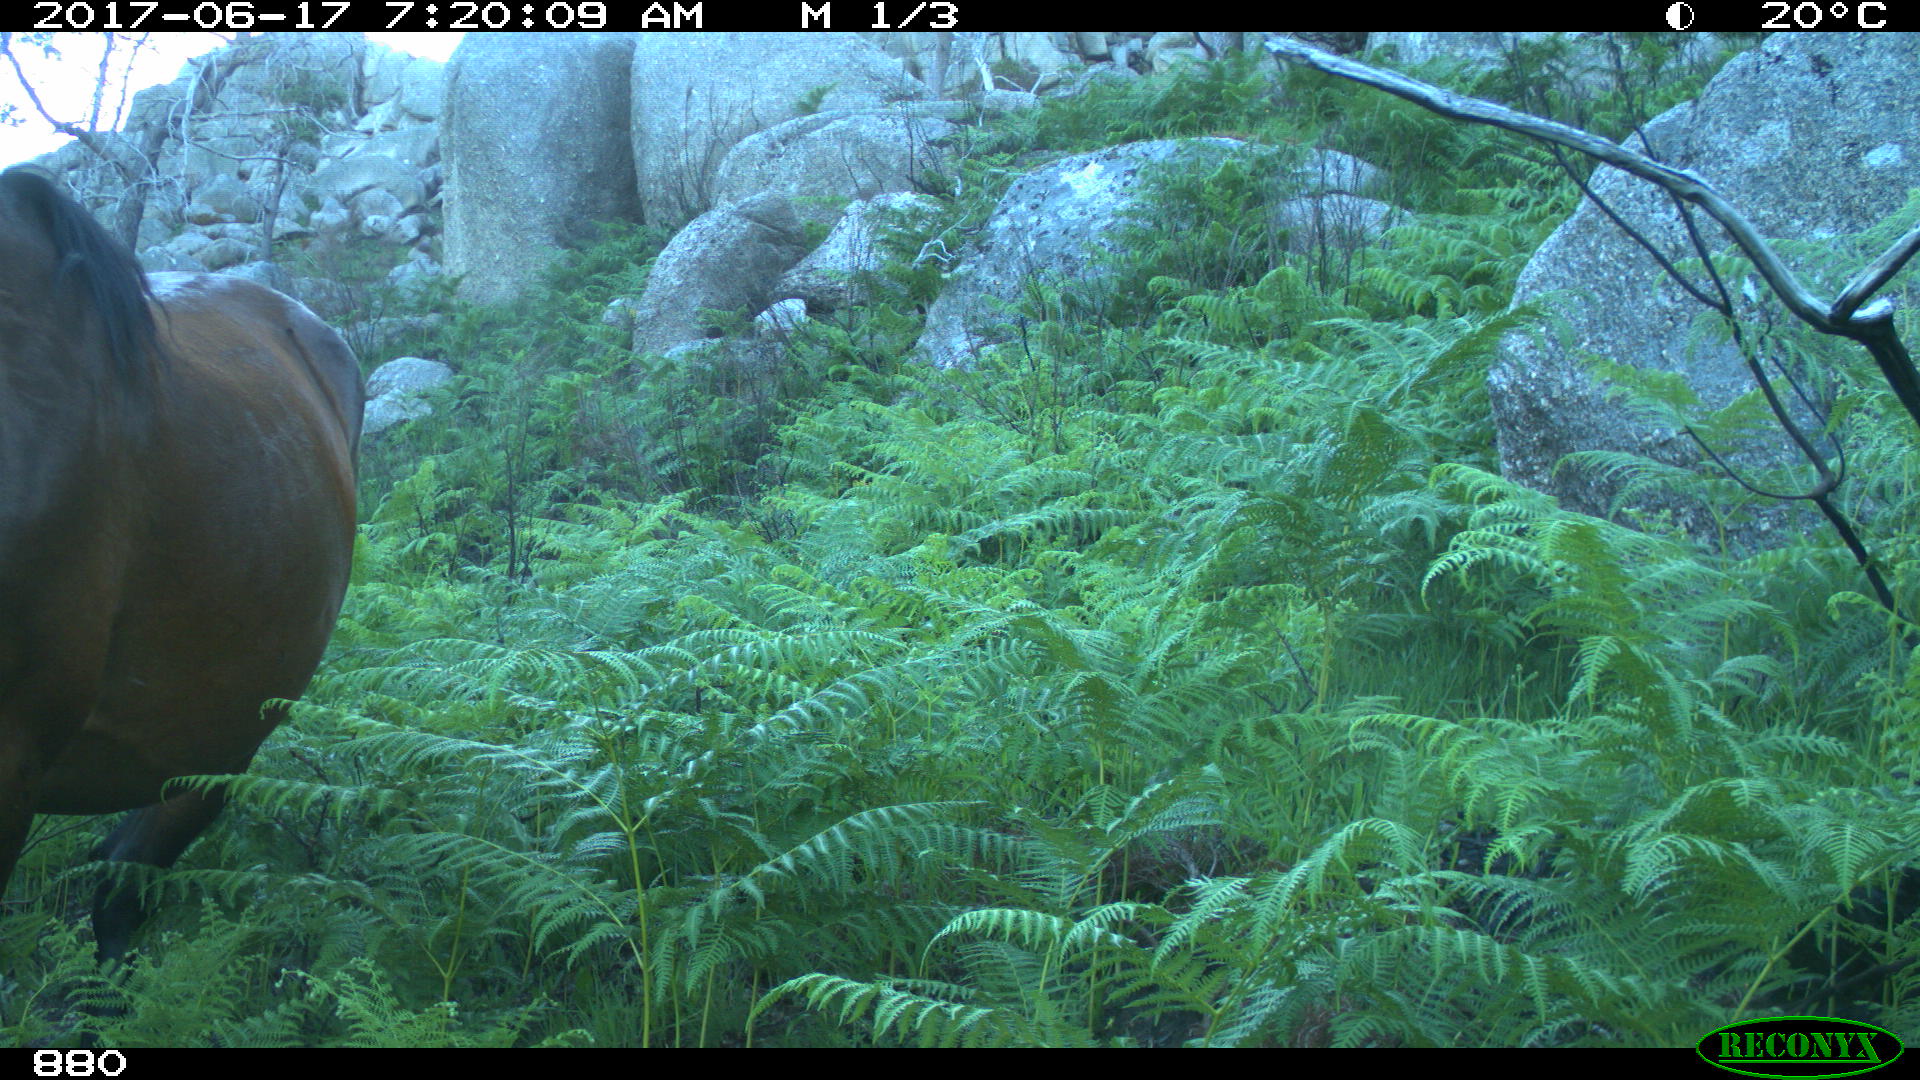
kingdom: Animalia
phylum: Chordata
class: Mammalia
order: Perissodactyla
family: Equidae
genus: Equus
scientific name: Equus caballus
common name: Horse
